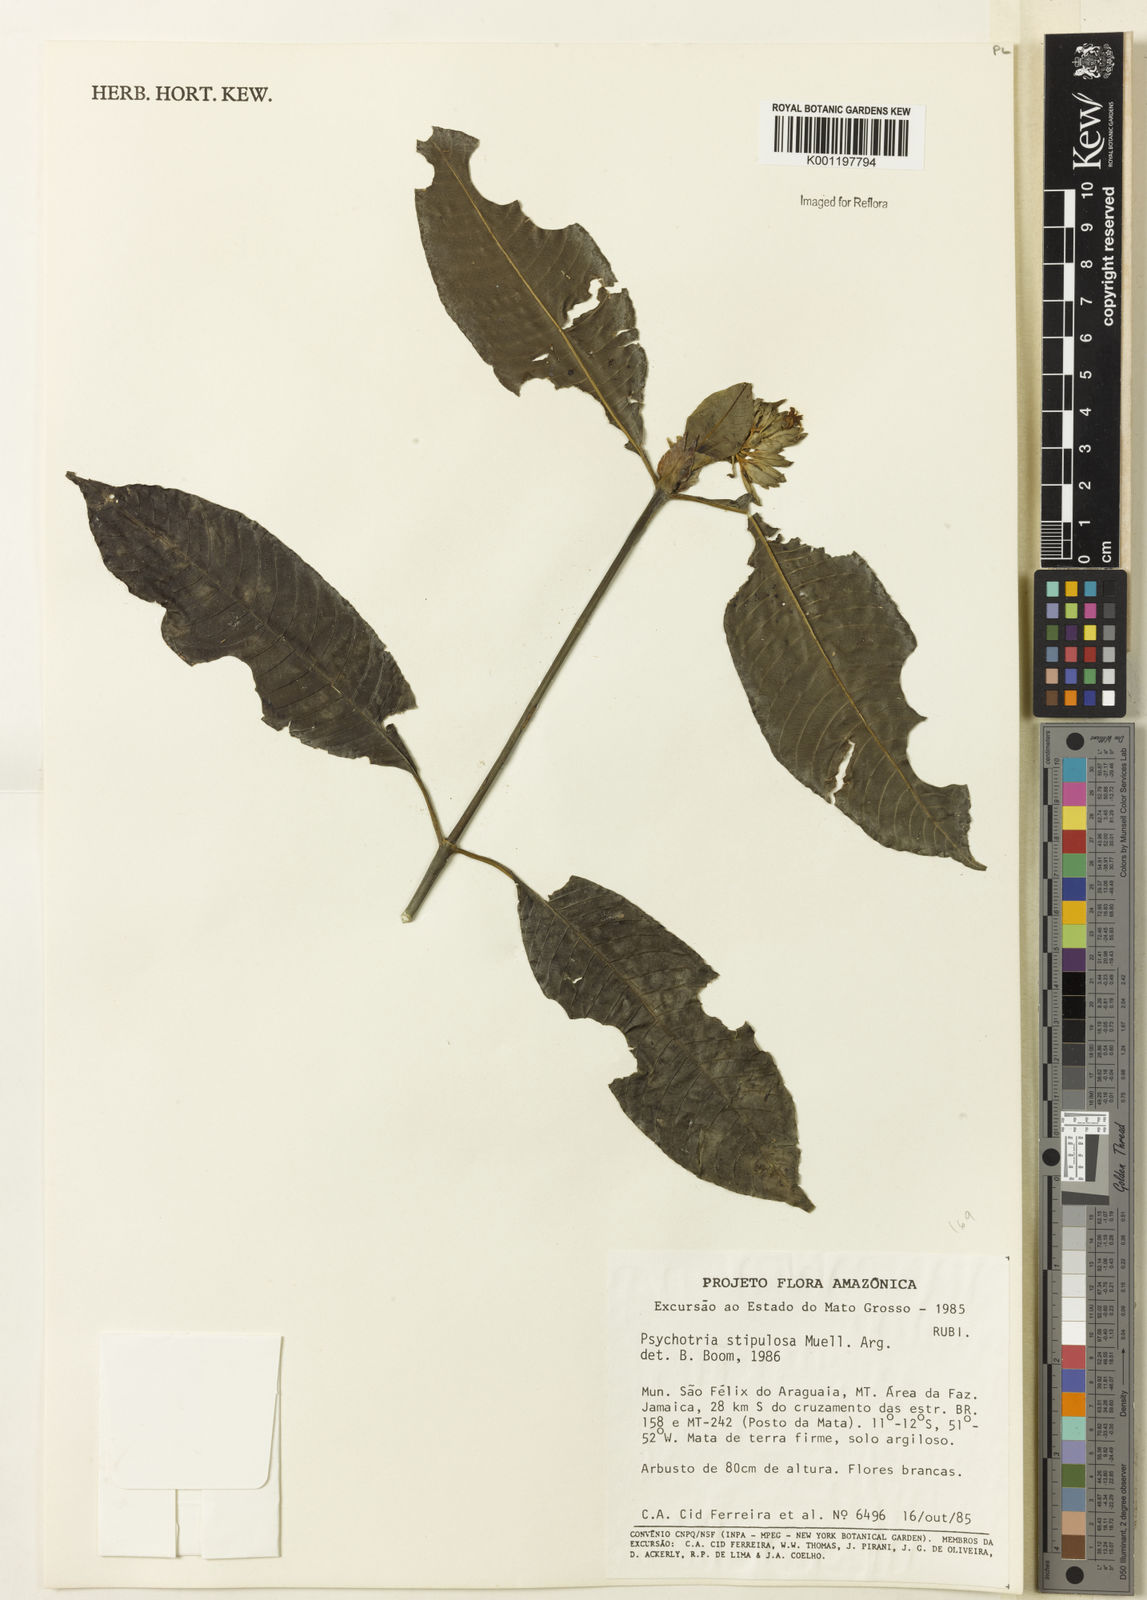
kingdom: Plantae
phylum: Tracheophyta
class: Magnoliopsida
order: Gentianales
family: Rubiaceae
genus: Psychotria
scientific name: Psychotria
